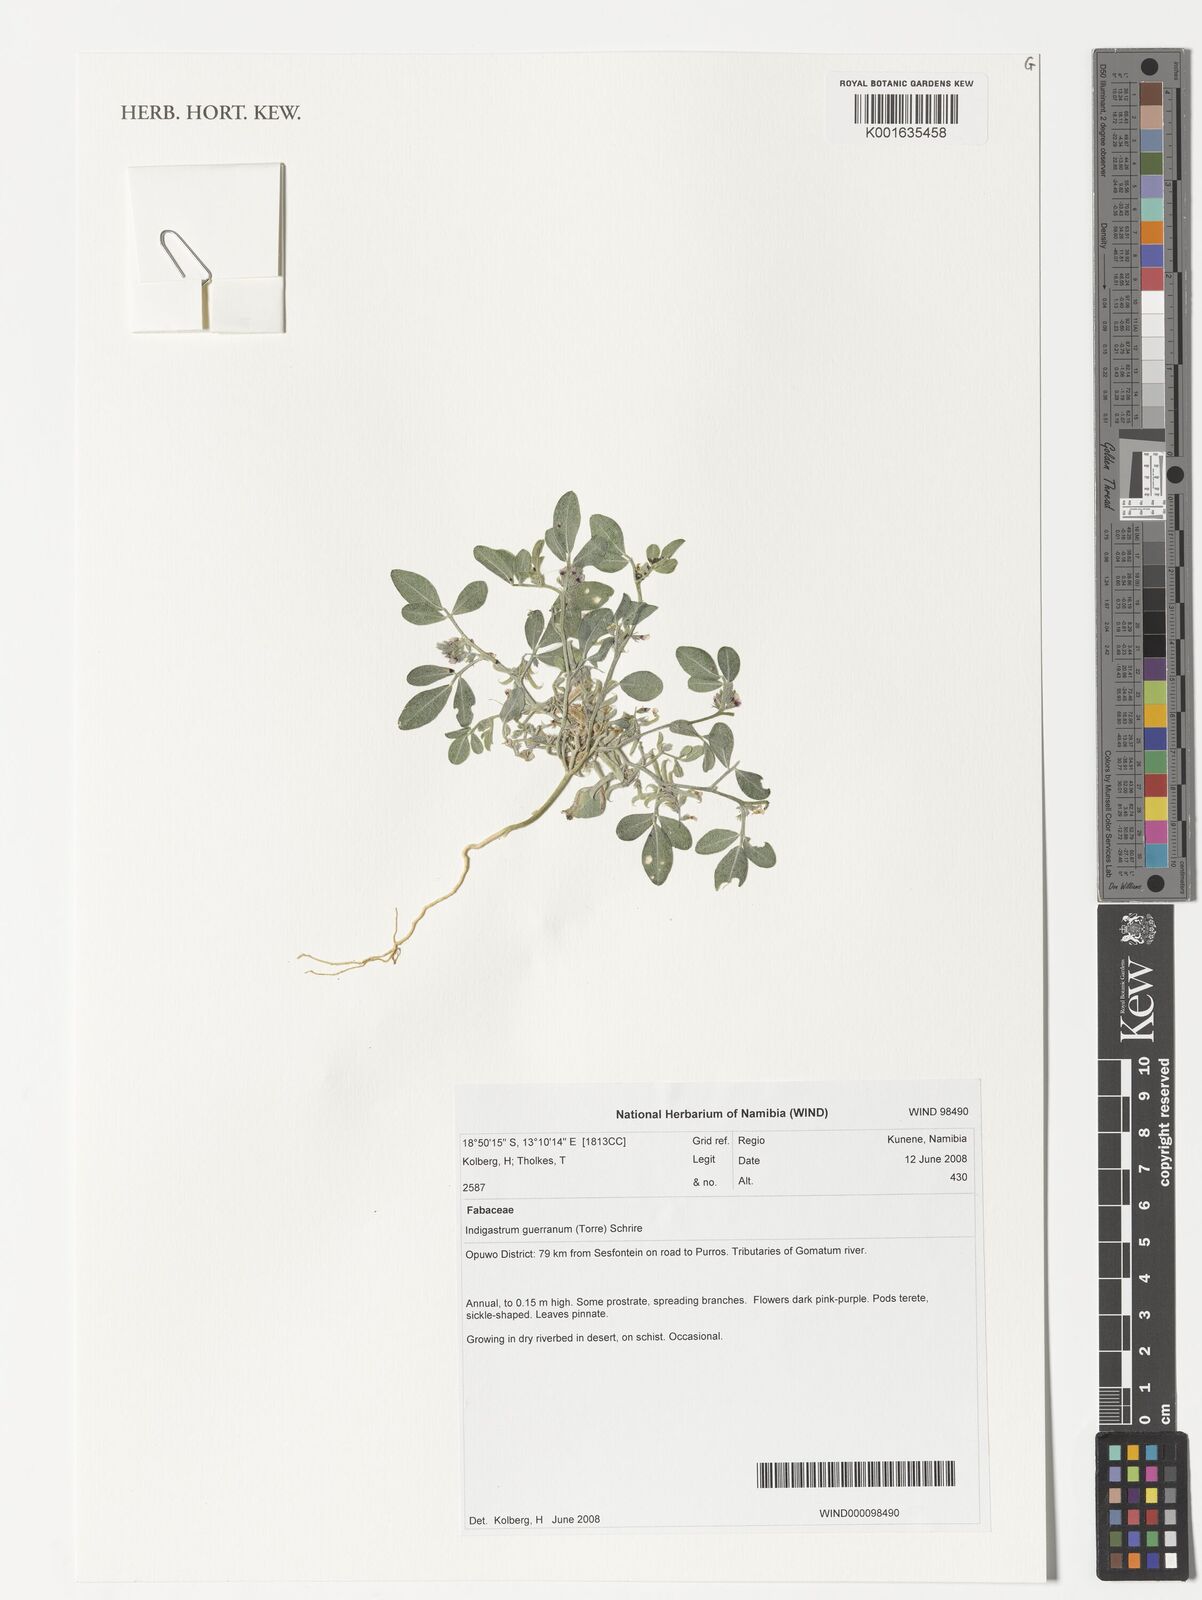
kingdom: Plantae
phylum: Tracheophyta
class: Magnoliopsida
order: Fabales
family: Fabaceae
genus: Indigastrum
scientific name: Indigastrum guerranum
